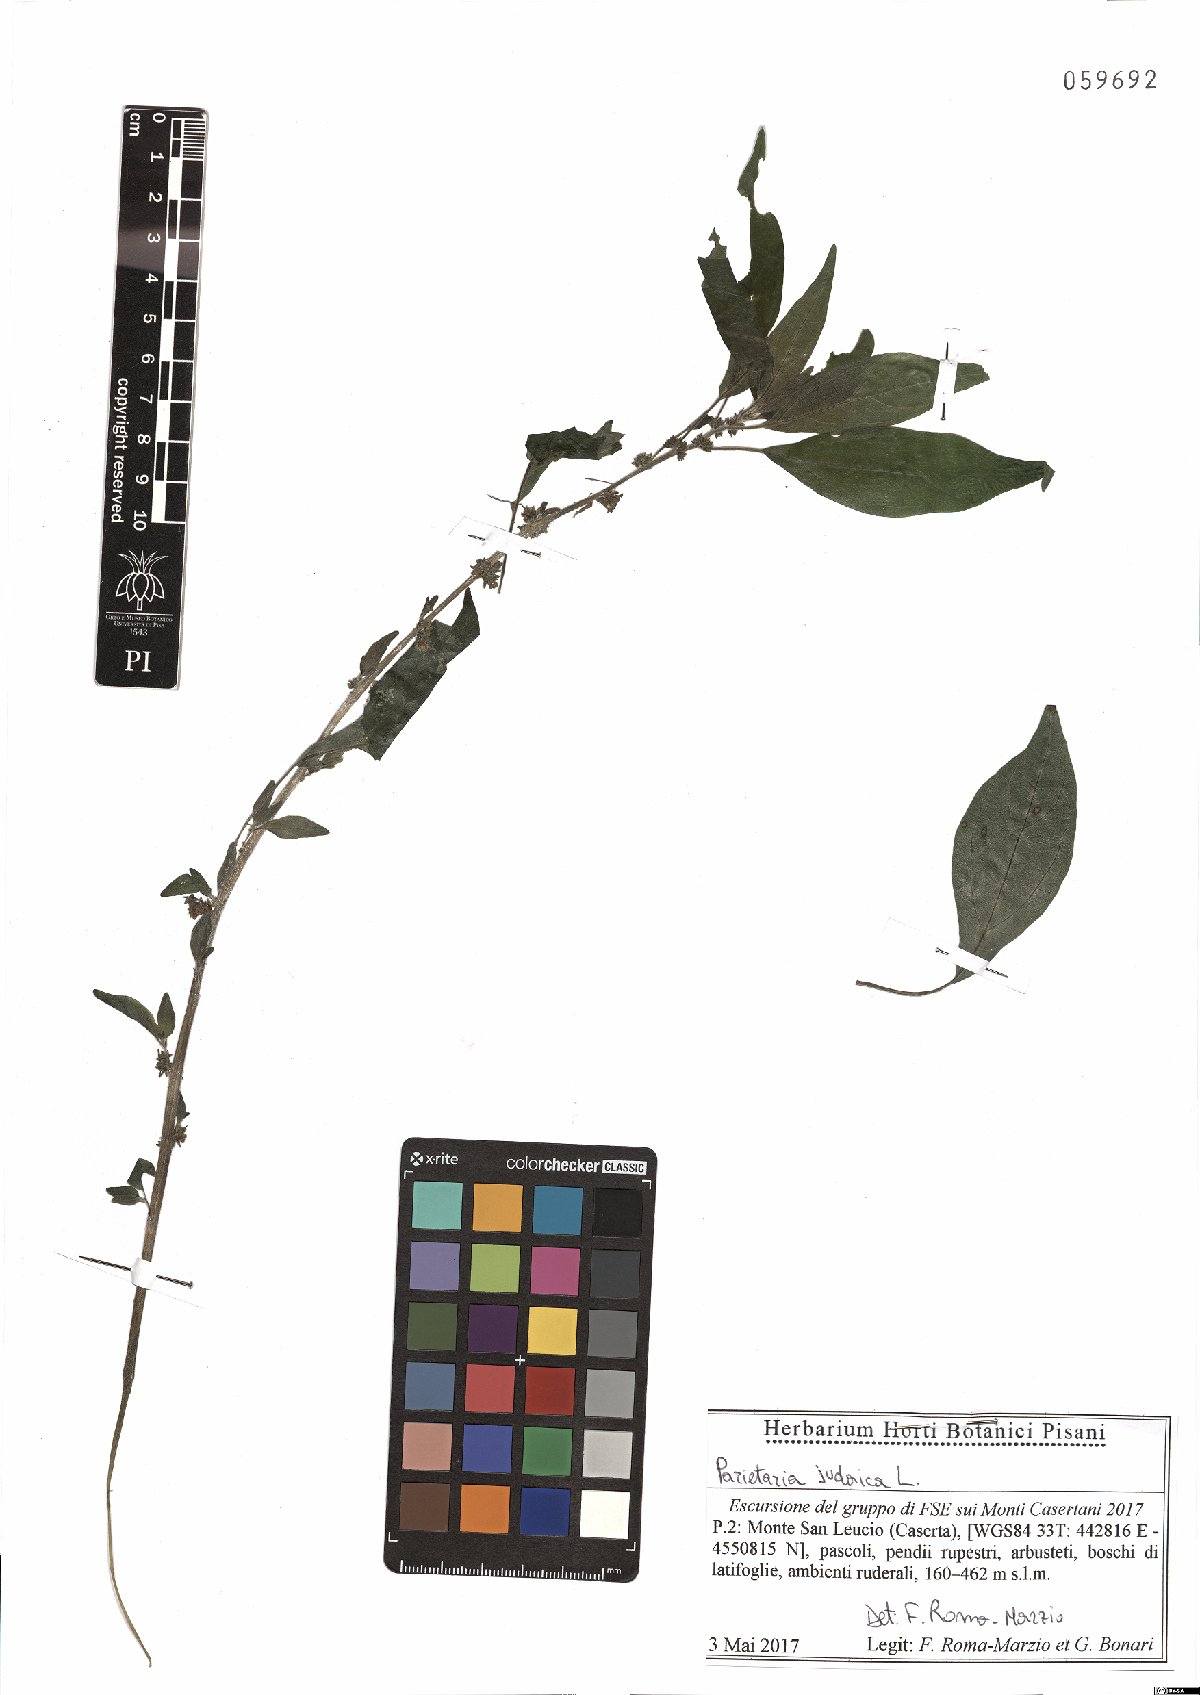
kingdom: Plantae
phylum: Tracheophyta
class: Magnoliopsida
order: Rosales
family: Urticaceae
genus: Parietaria
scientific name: Parietaria judaica
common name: Pellitory-of-the-wall
